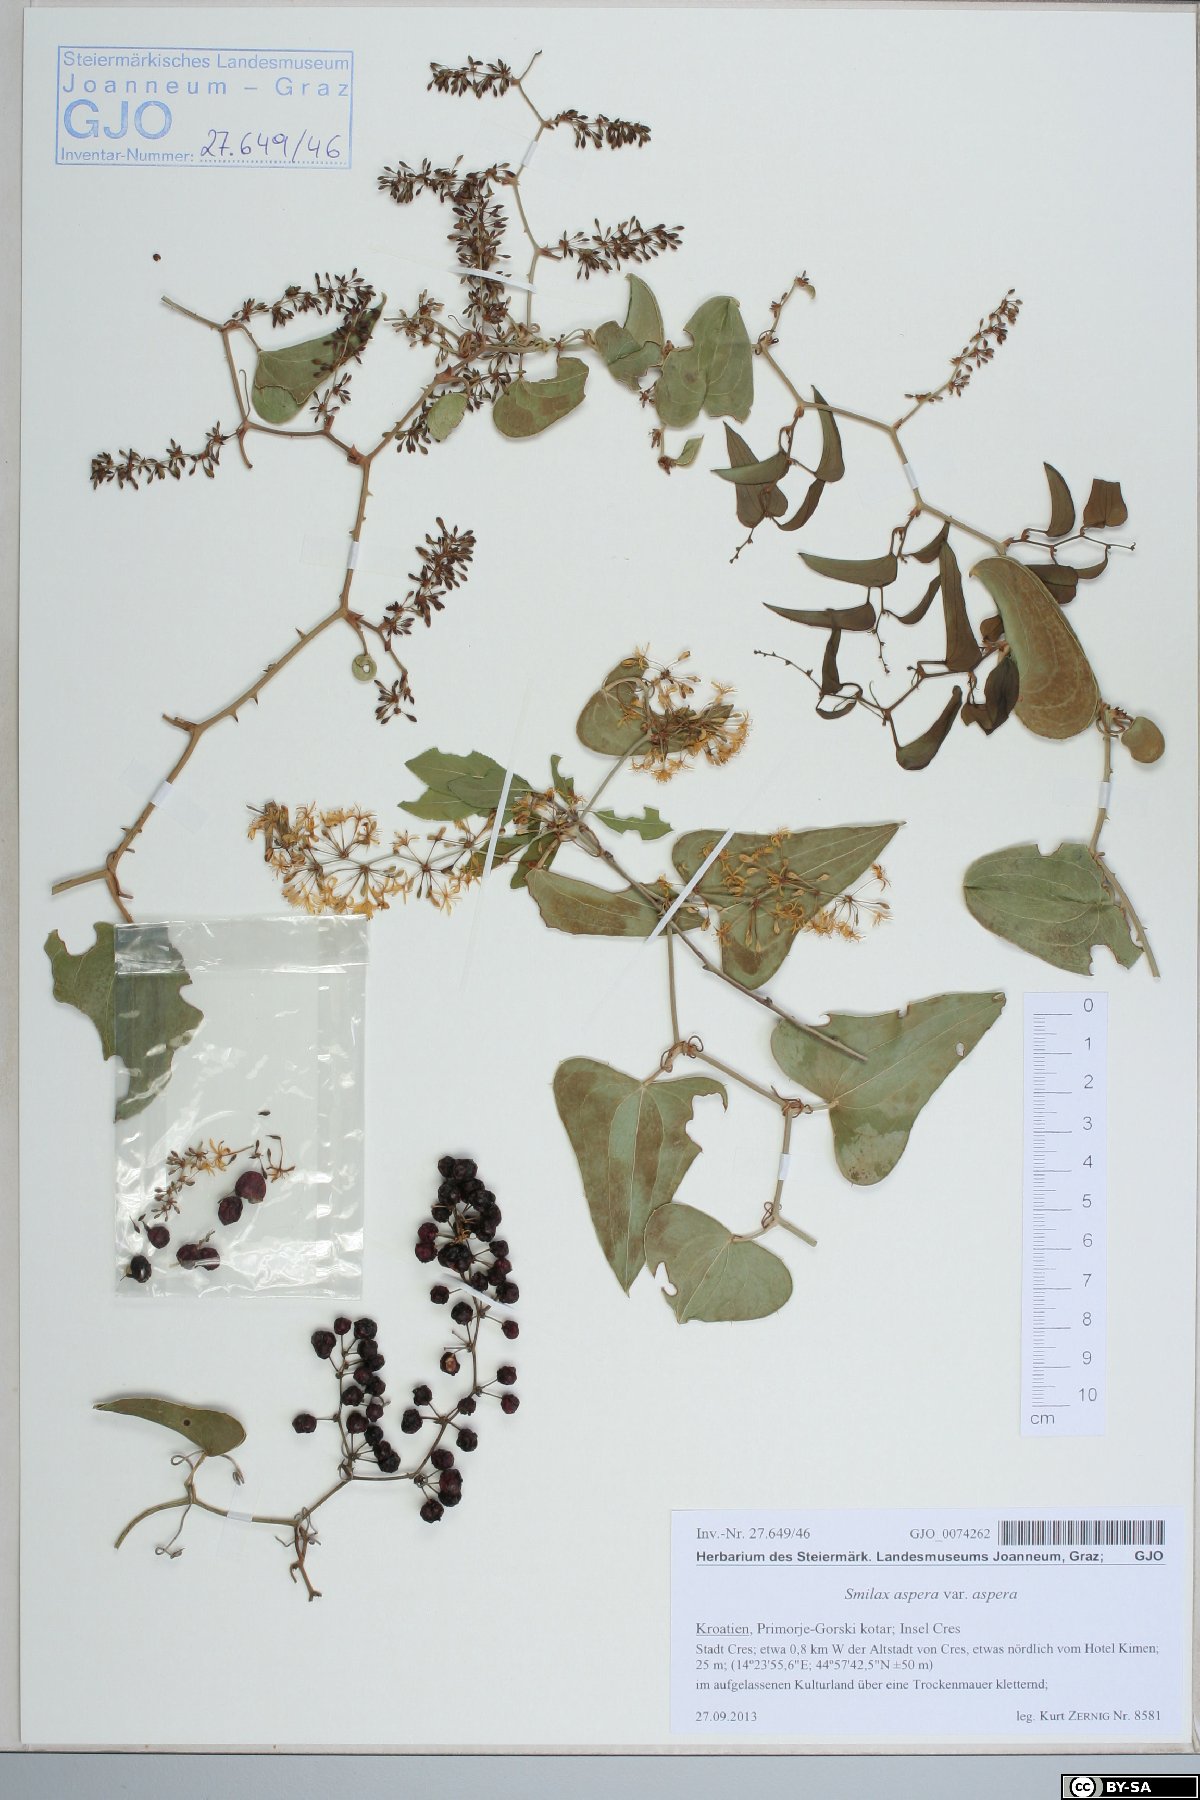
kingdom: Plantae
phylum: Tracheophyta
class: Liliopsida
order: Liliales
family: Smilacaceae
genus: Smilax
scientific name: Smilax aspera
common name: Common smilax
